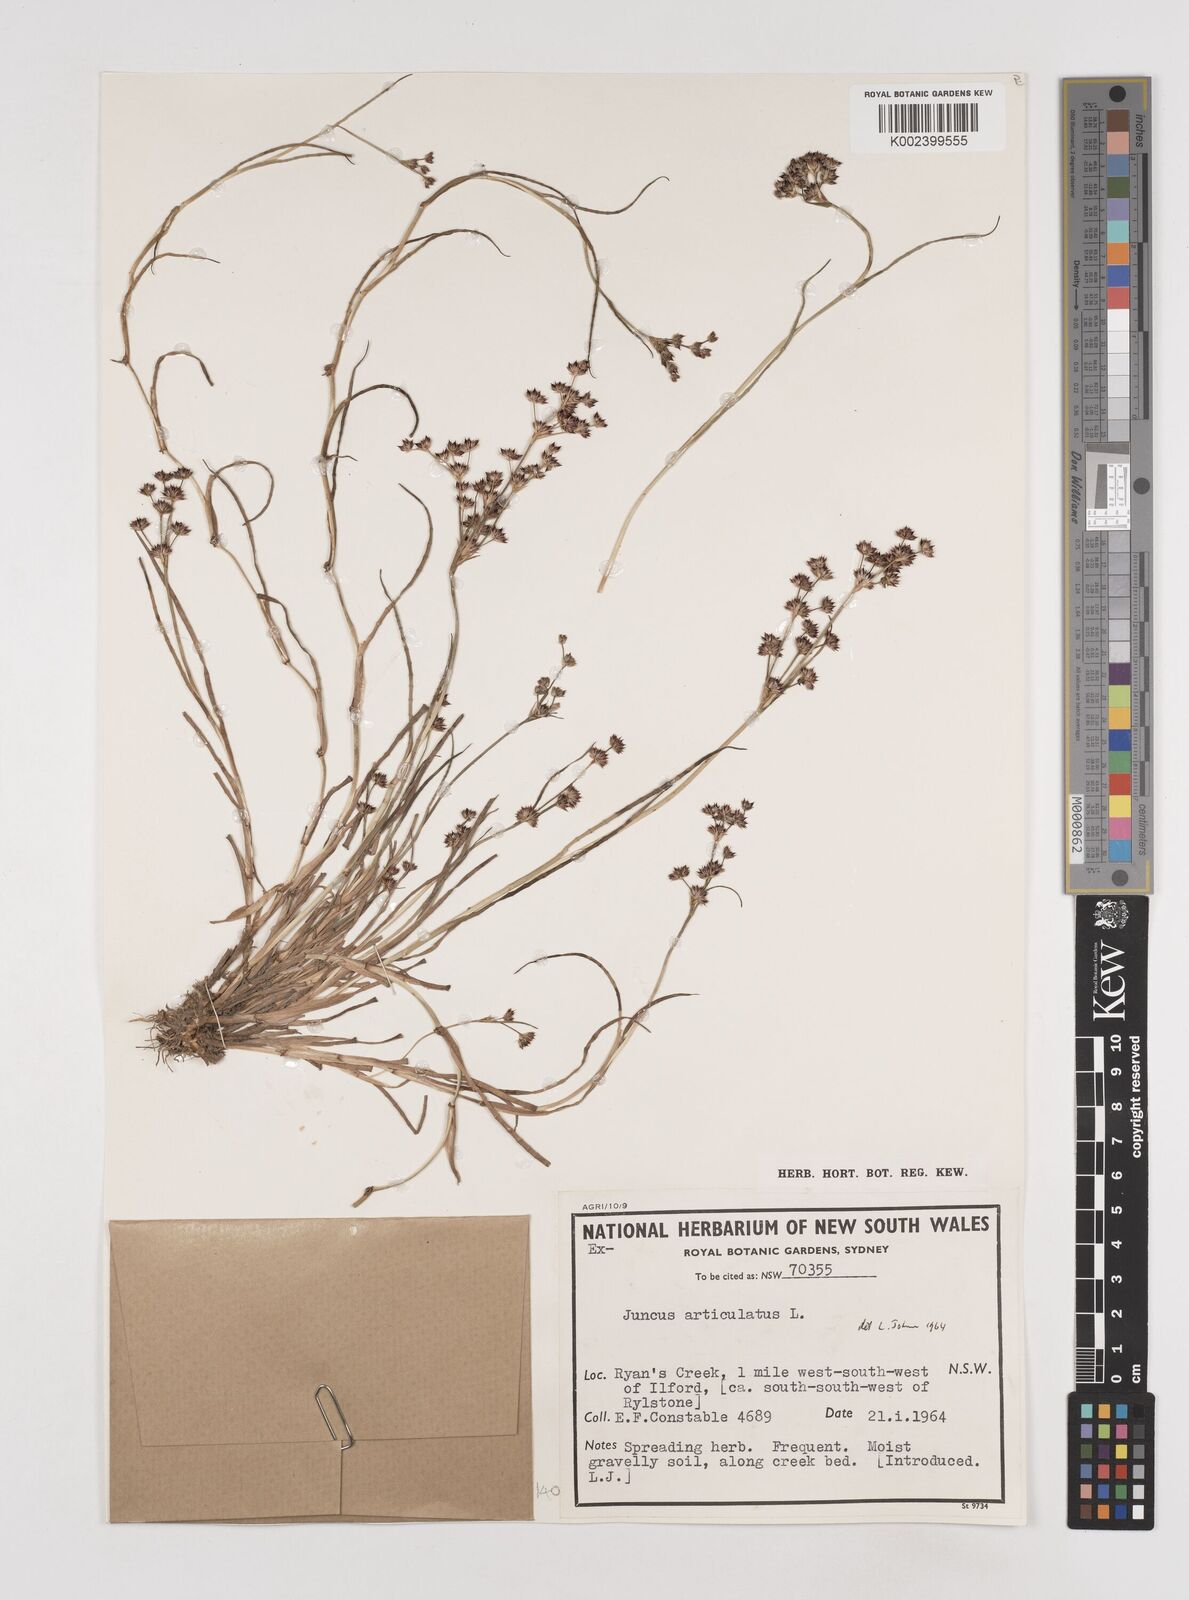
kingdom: Plantae
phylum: Tracheophyta
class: Liliopsida
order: Poales
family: Juncaceae
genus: Juncus
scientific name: Juncus articulatus
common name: Jointed rush
